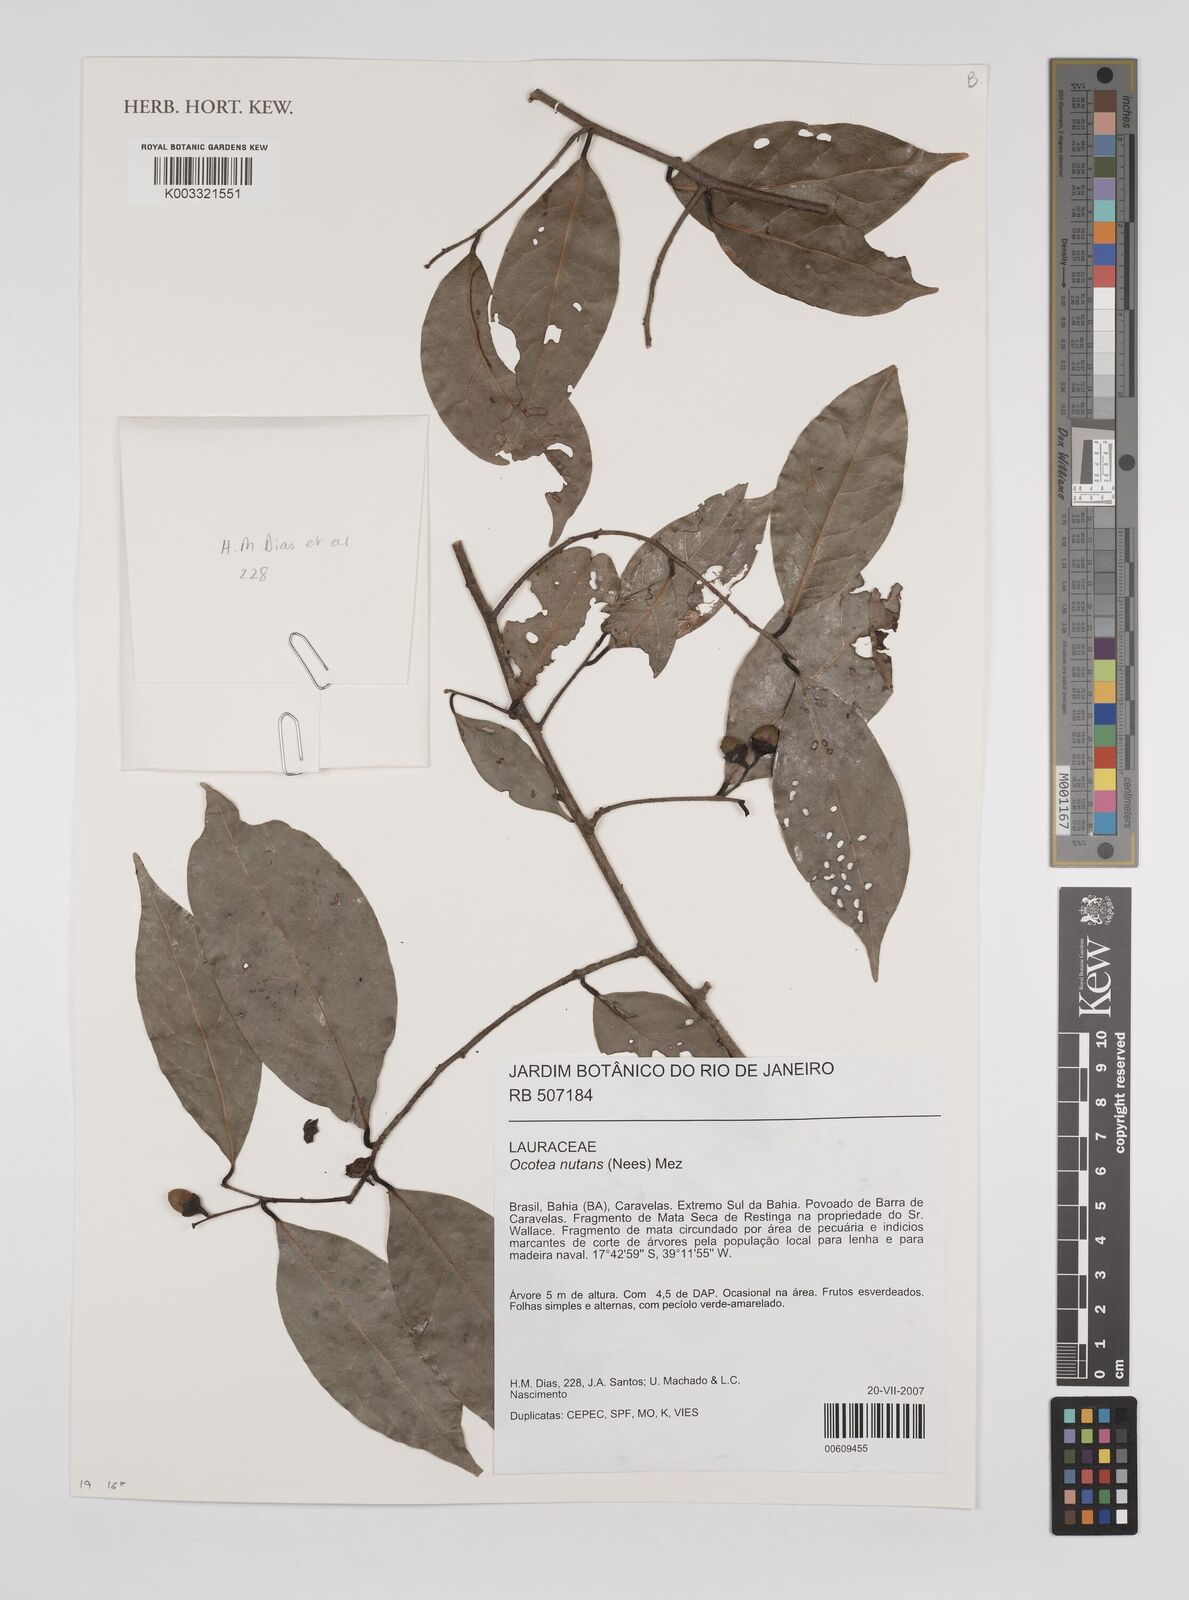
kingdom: Plantae
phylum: Tracheophyta
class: Magnoliopsida
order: Laurales
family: Lauraceae
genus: Mespilodaphne
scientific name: Mespilodaphne nutans
